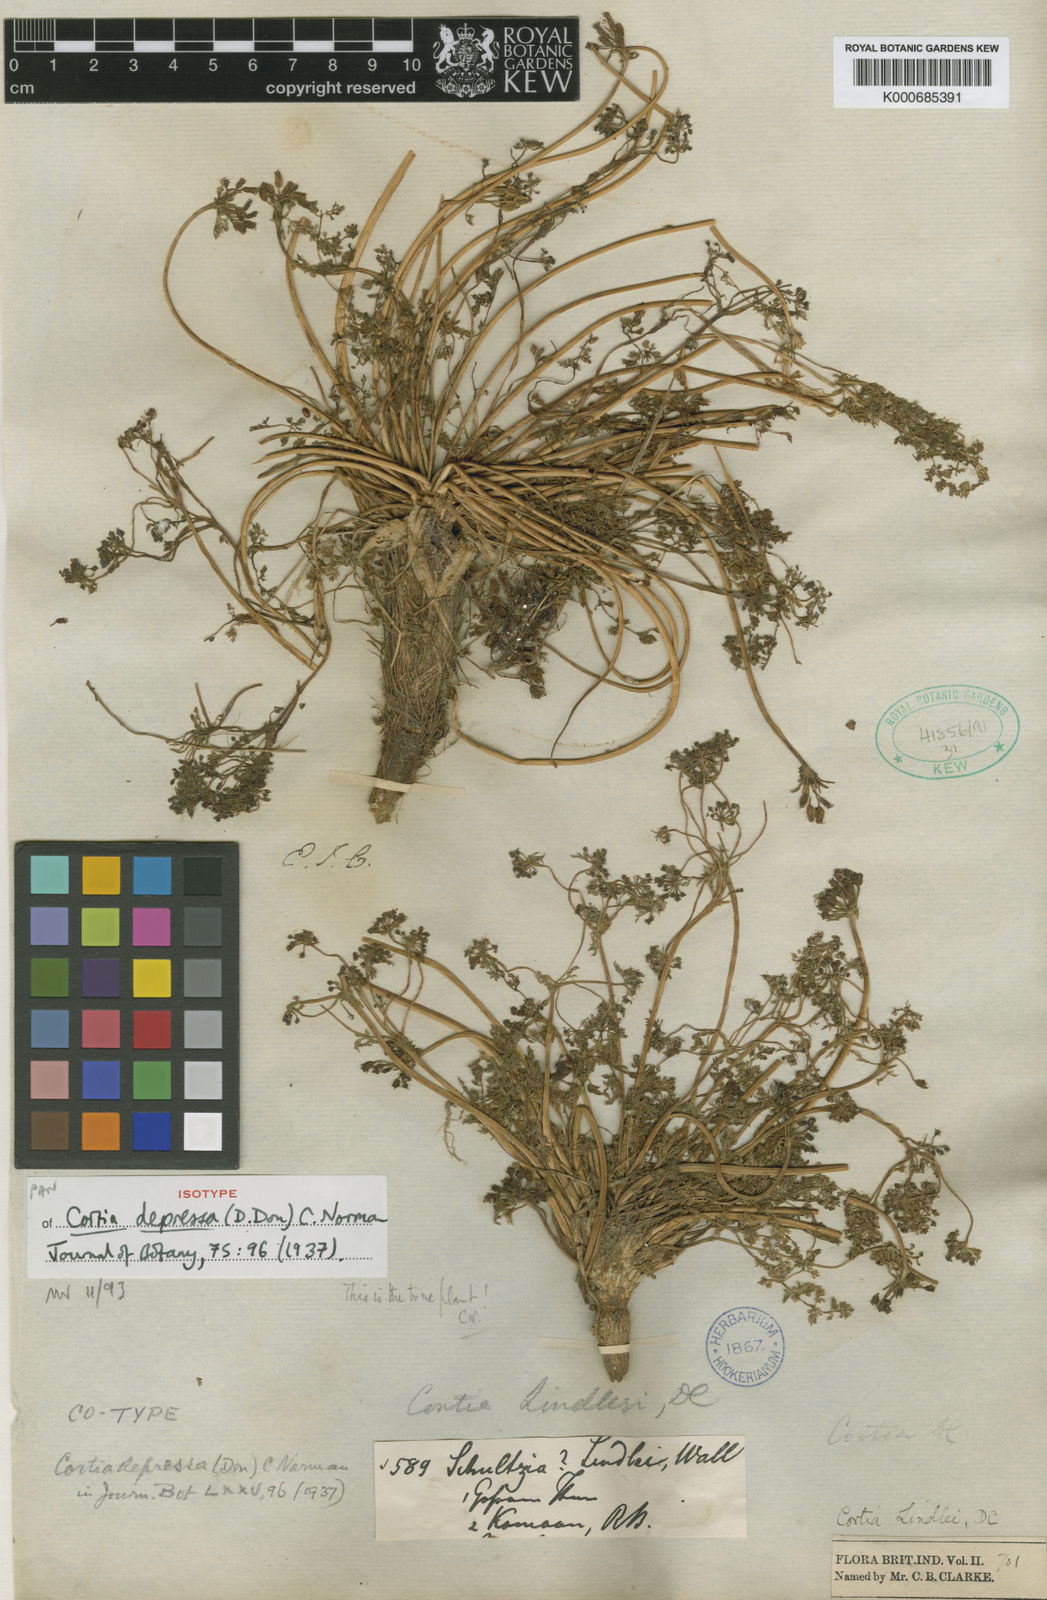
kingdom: Plantae
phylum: Tracheophyta
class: Magnoliopsida
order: Apiales
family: Apiaceae
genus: Cortia
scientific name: Cortia depressa
